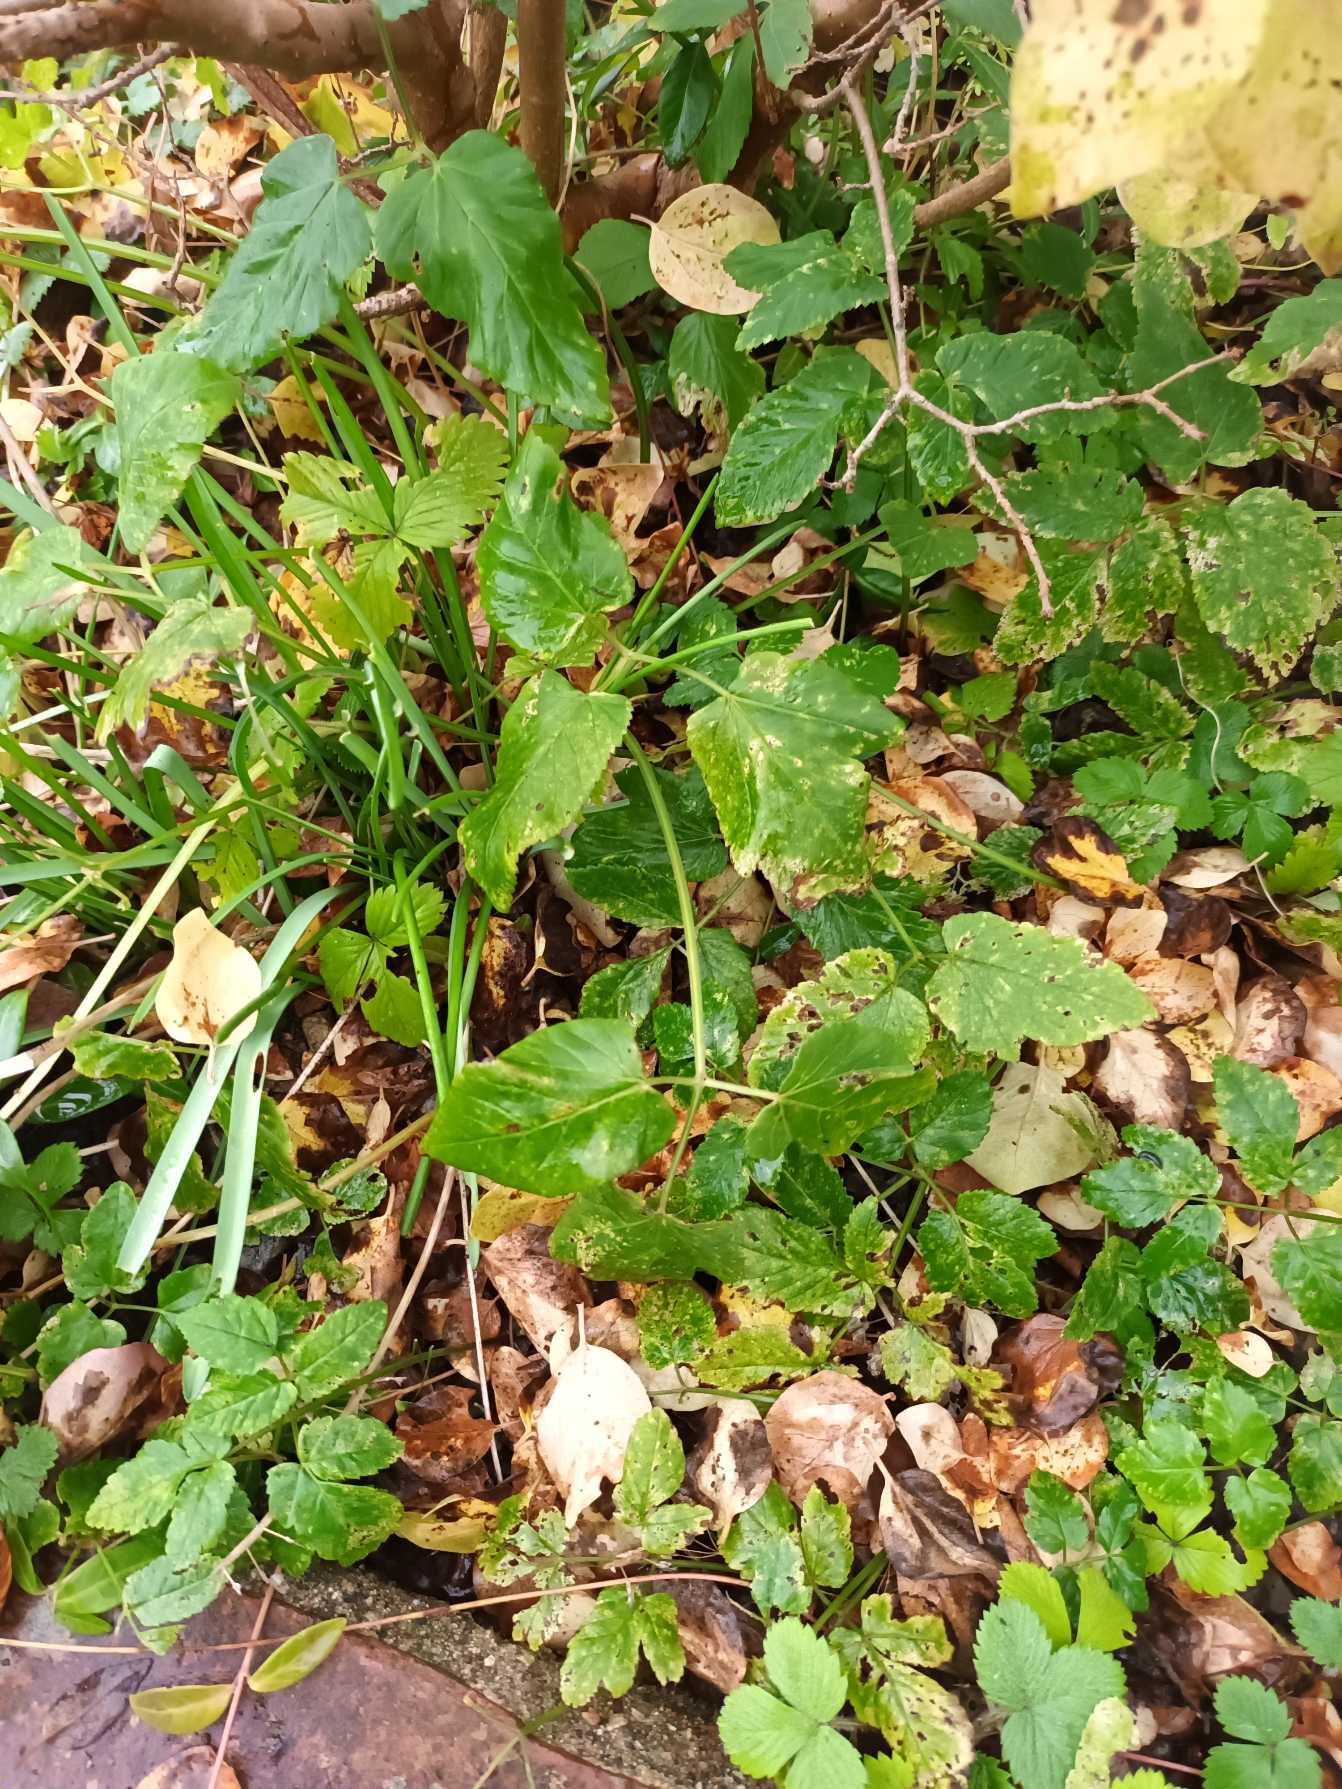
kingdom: Plantae
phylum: Tracheophyta
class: Magnoliopsida
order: Apiales
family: Apiaceae
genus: Aegopodium
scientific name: Aegopodium podagraria
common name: Skvalderkål
